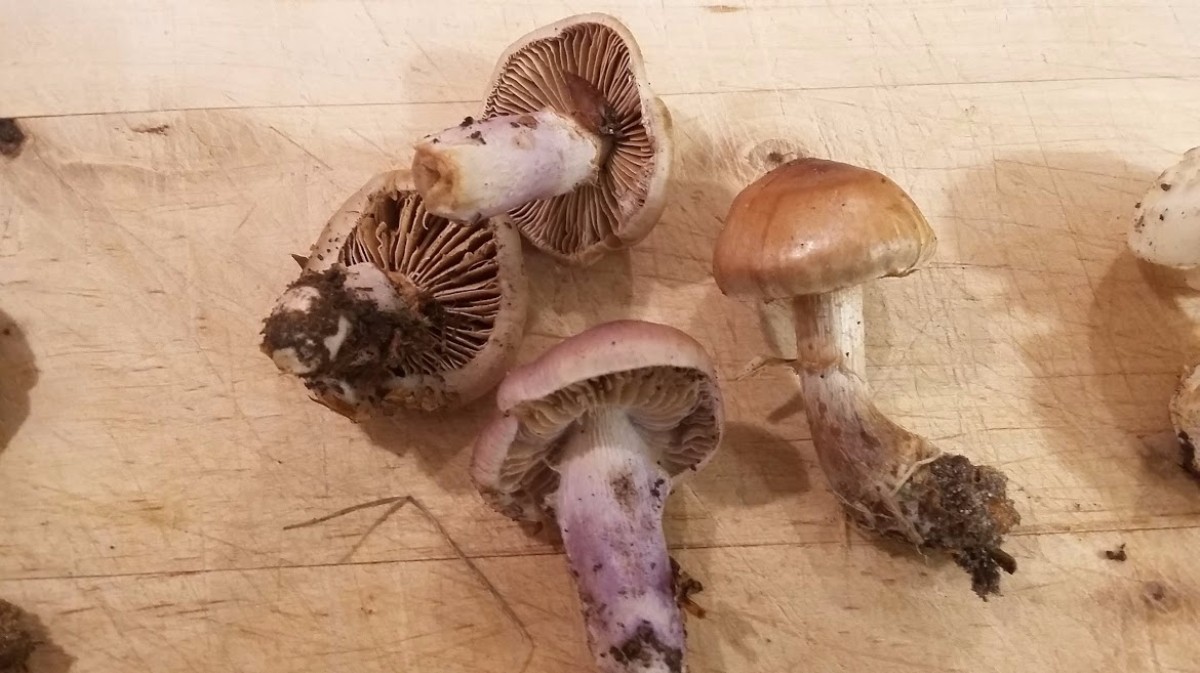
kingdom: Fungi
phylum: Basidiomycota
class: Agaricomycetes
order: Agaricales
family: Cortinariaceae
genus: Cortinarius
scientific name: Cortinarius livido-ochraceus
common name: halvhøj slørhat
